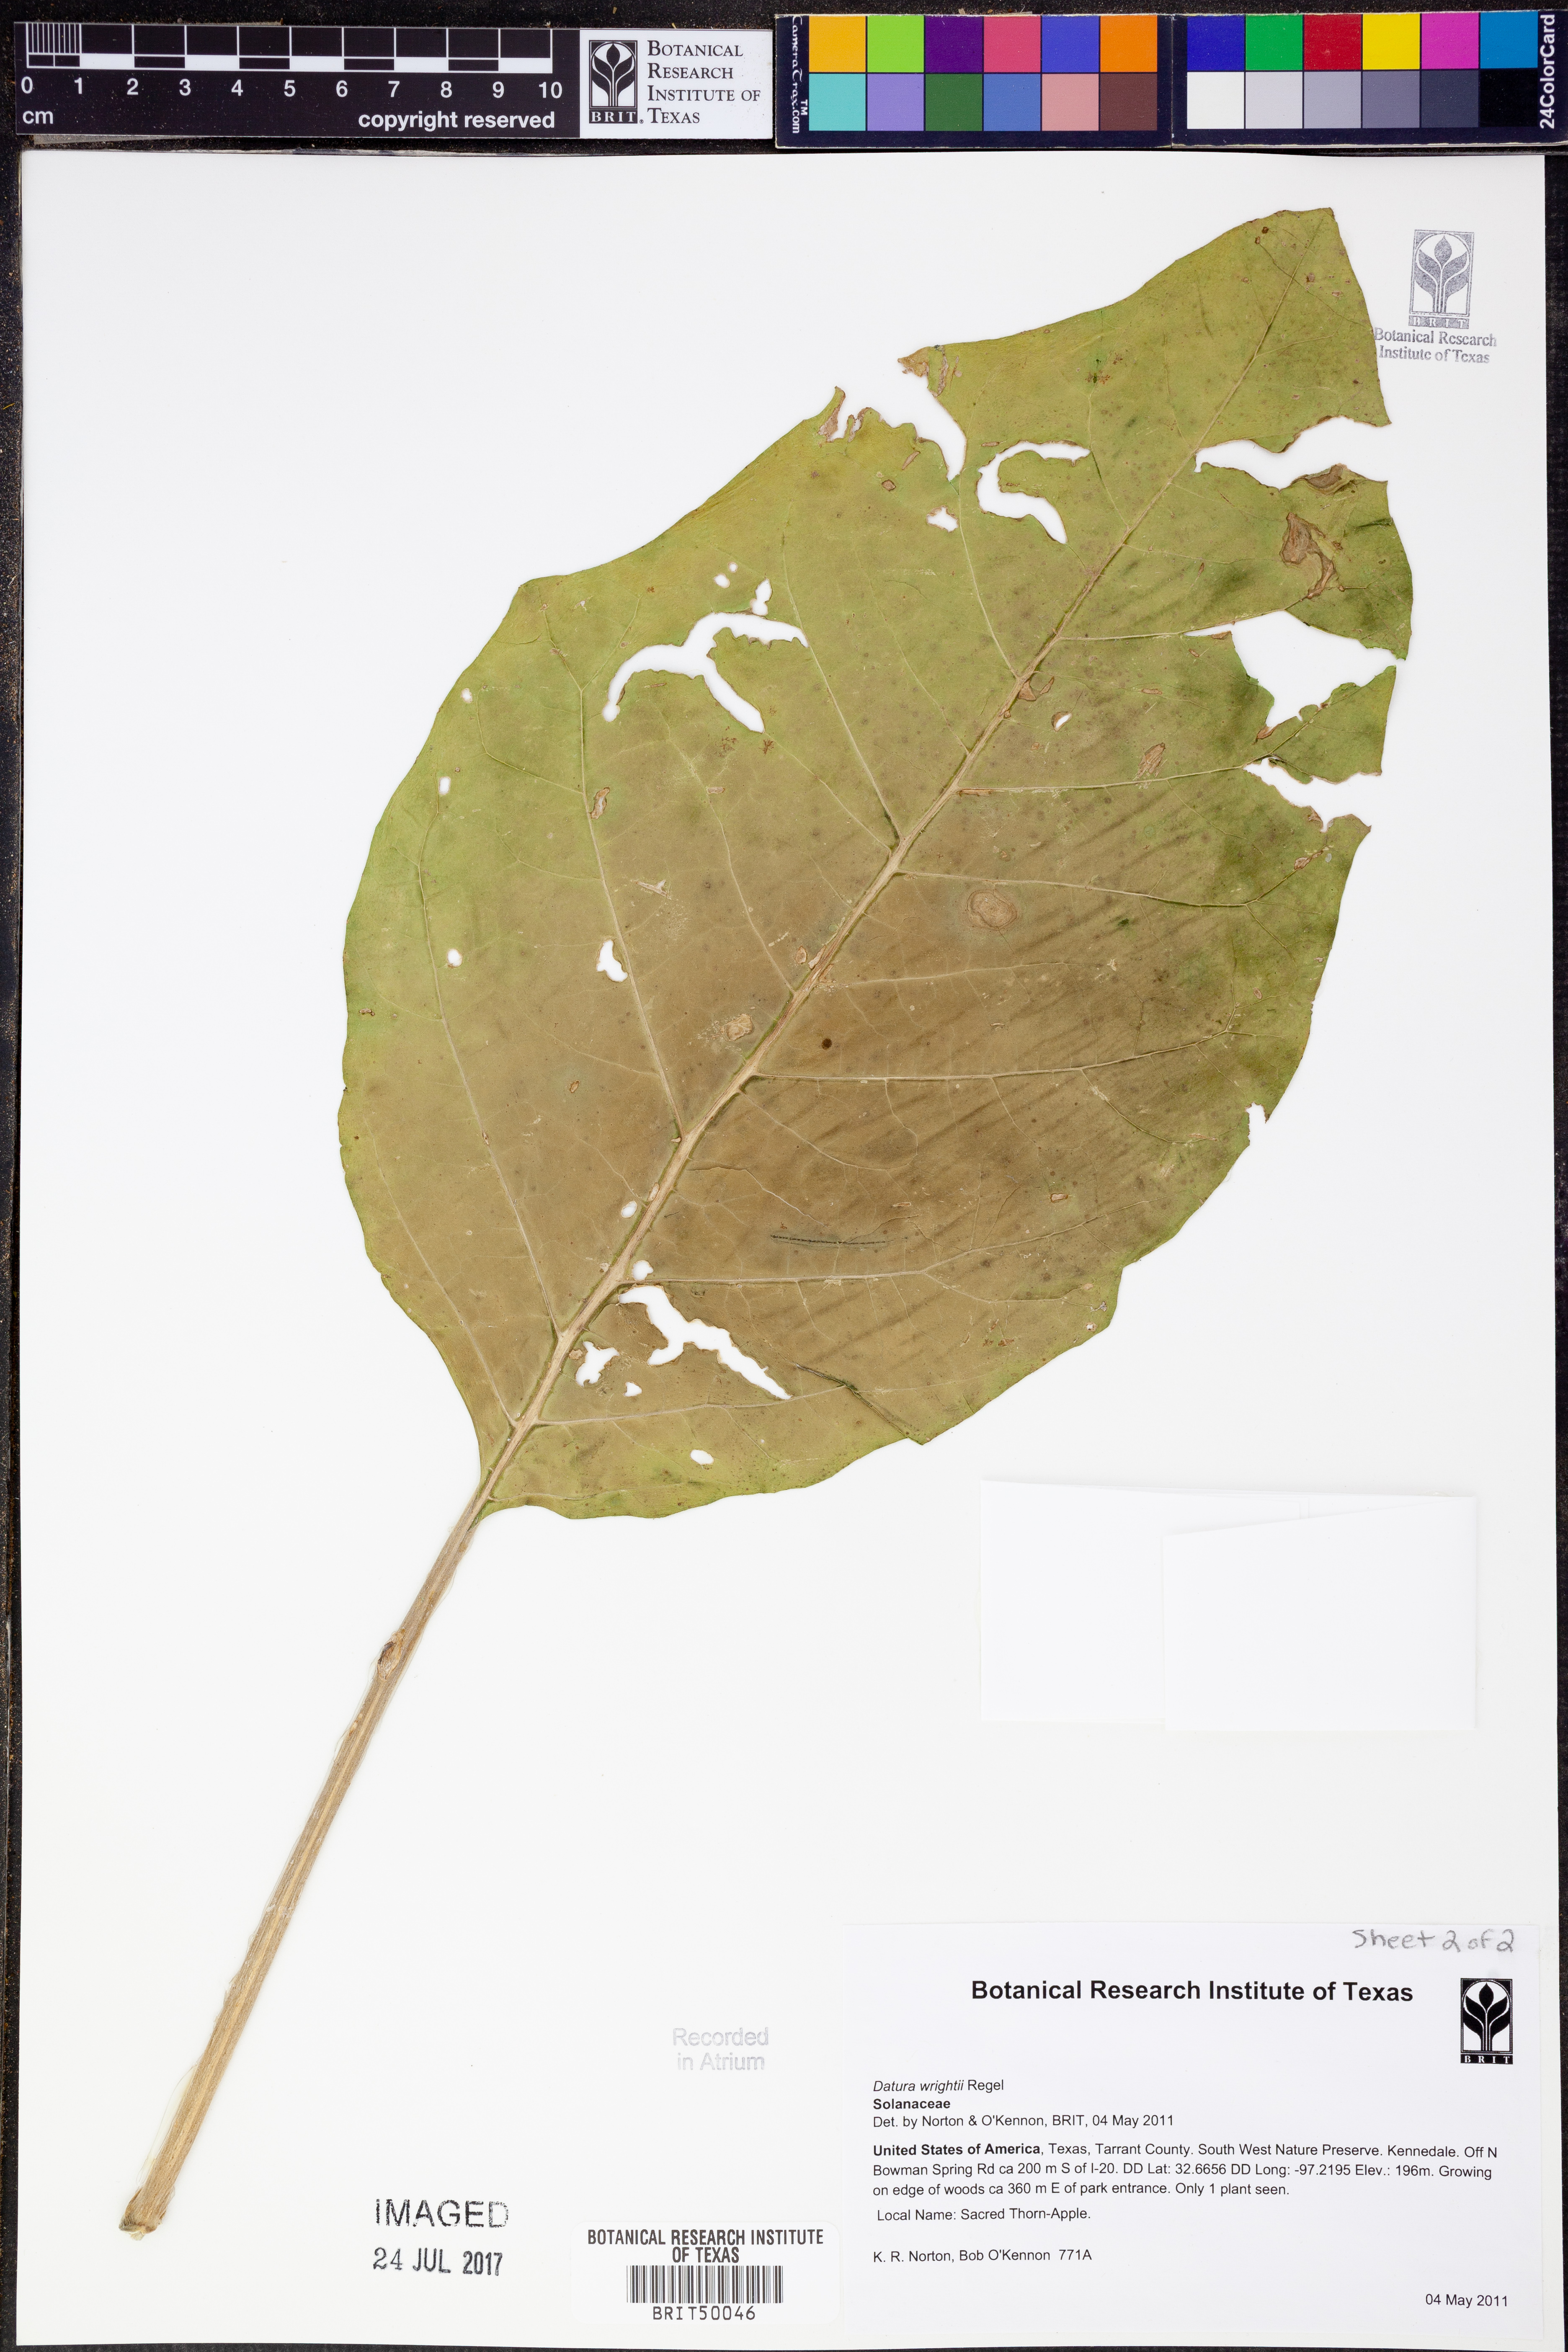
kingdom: Plantae
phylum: Tracheophyta
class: Magnoliopsida
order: Solanales
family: Solanaceae
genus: Datura
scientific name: Datura wrightii
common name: Sacred thorn-apple
